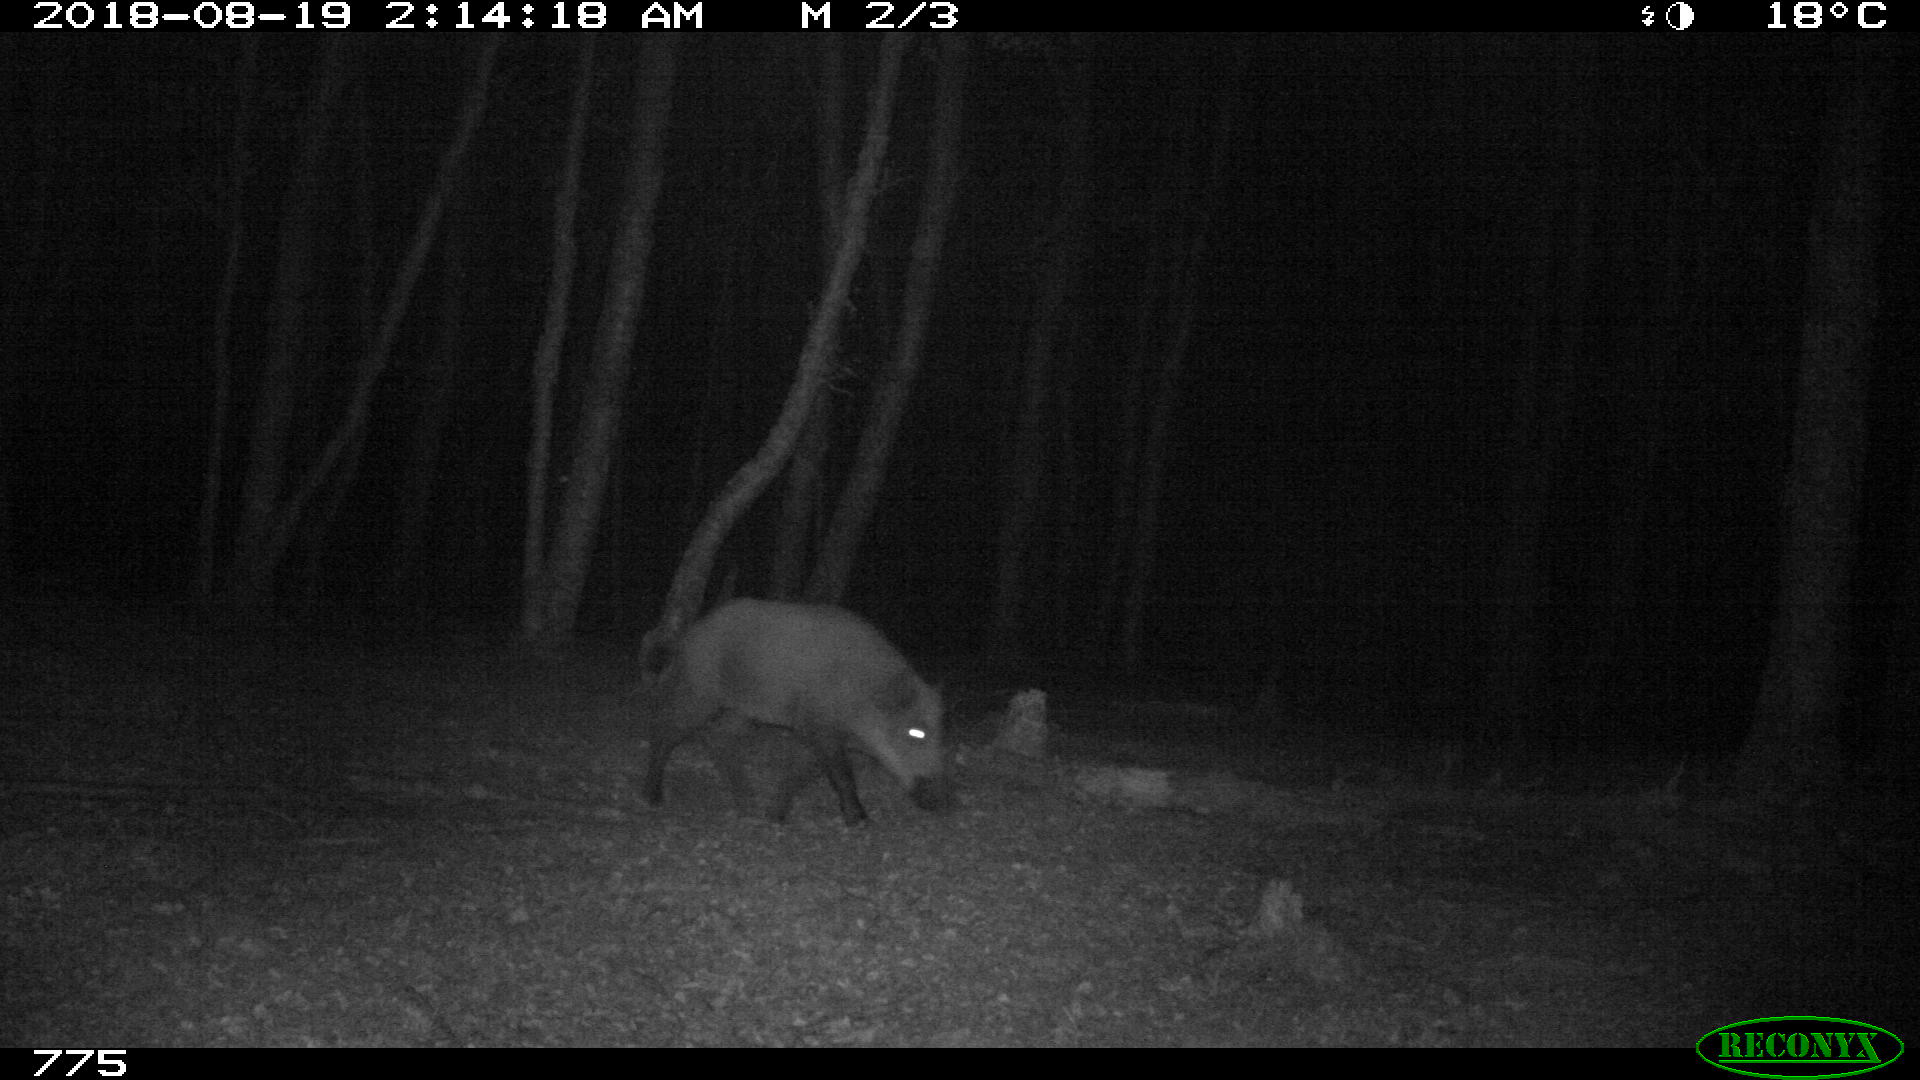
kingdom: Animalia
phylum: Chordata
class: Mammalia
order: Artiodactyla
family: Suidae
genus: Sus
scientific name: Sus scrofa
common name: Wild boar
